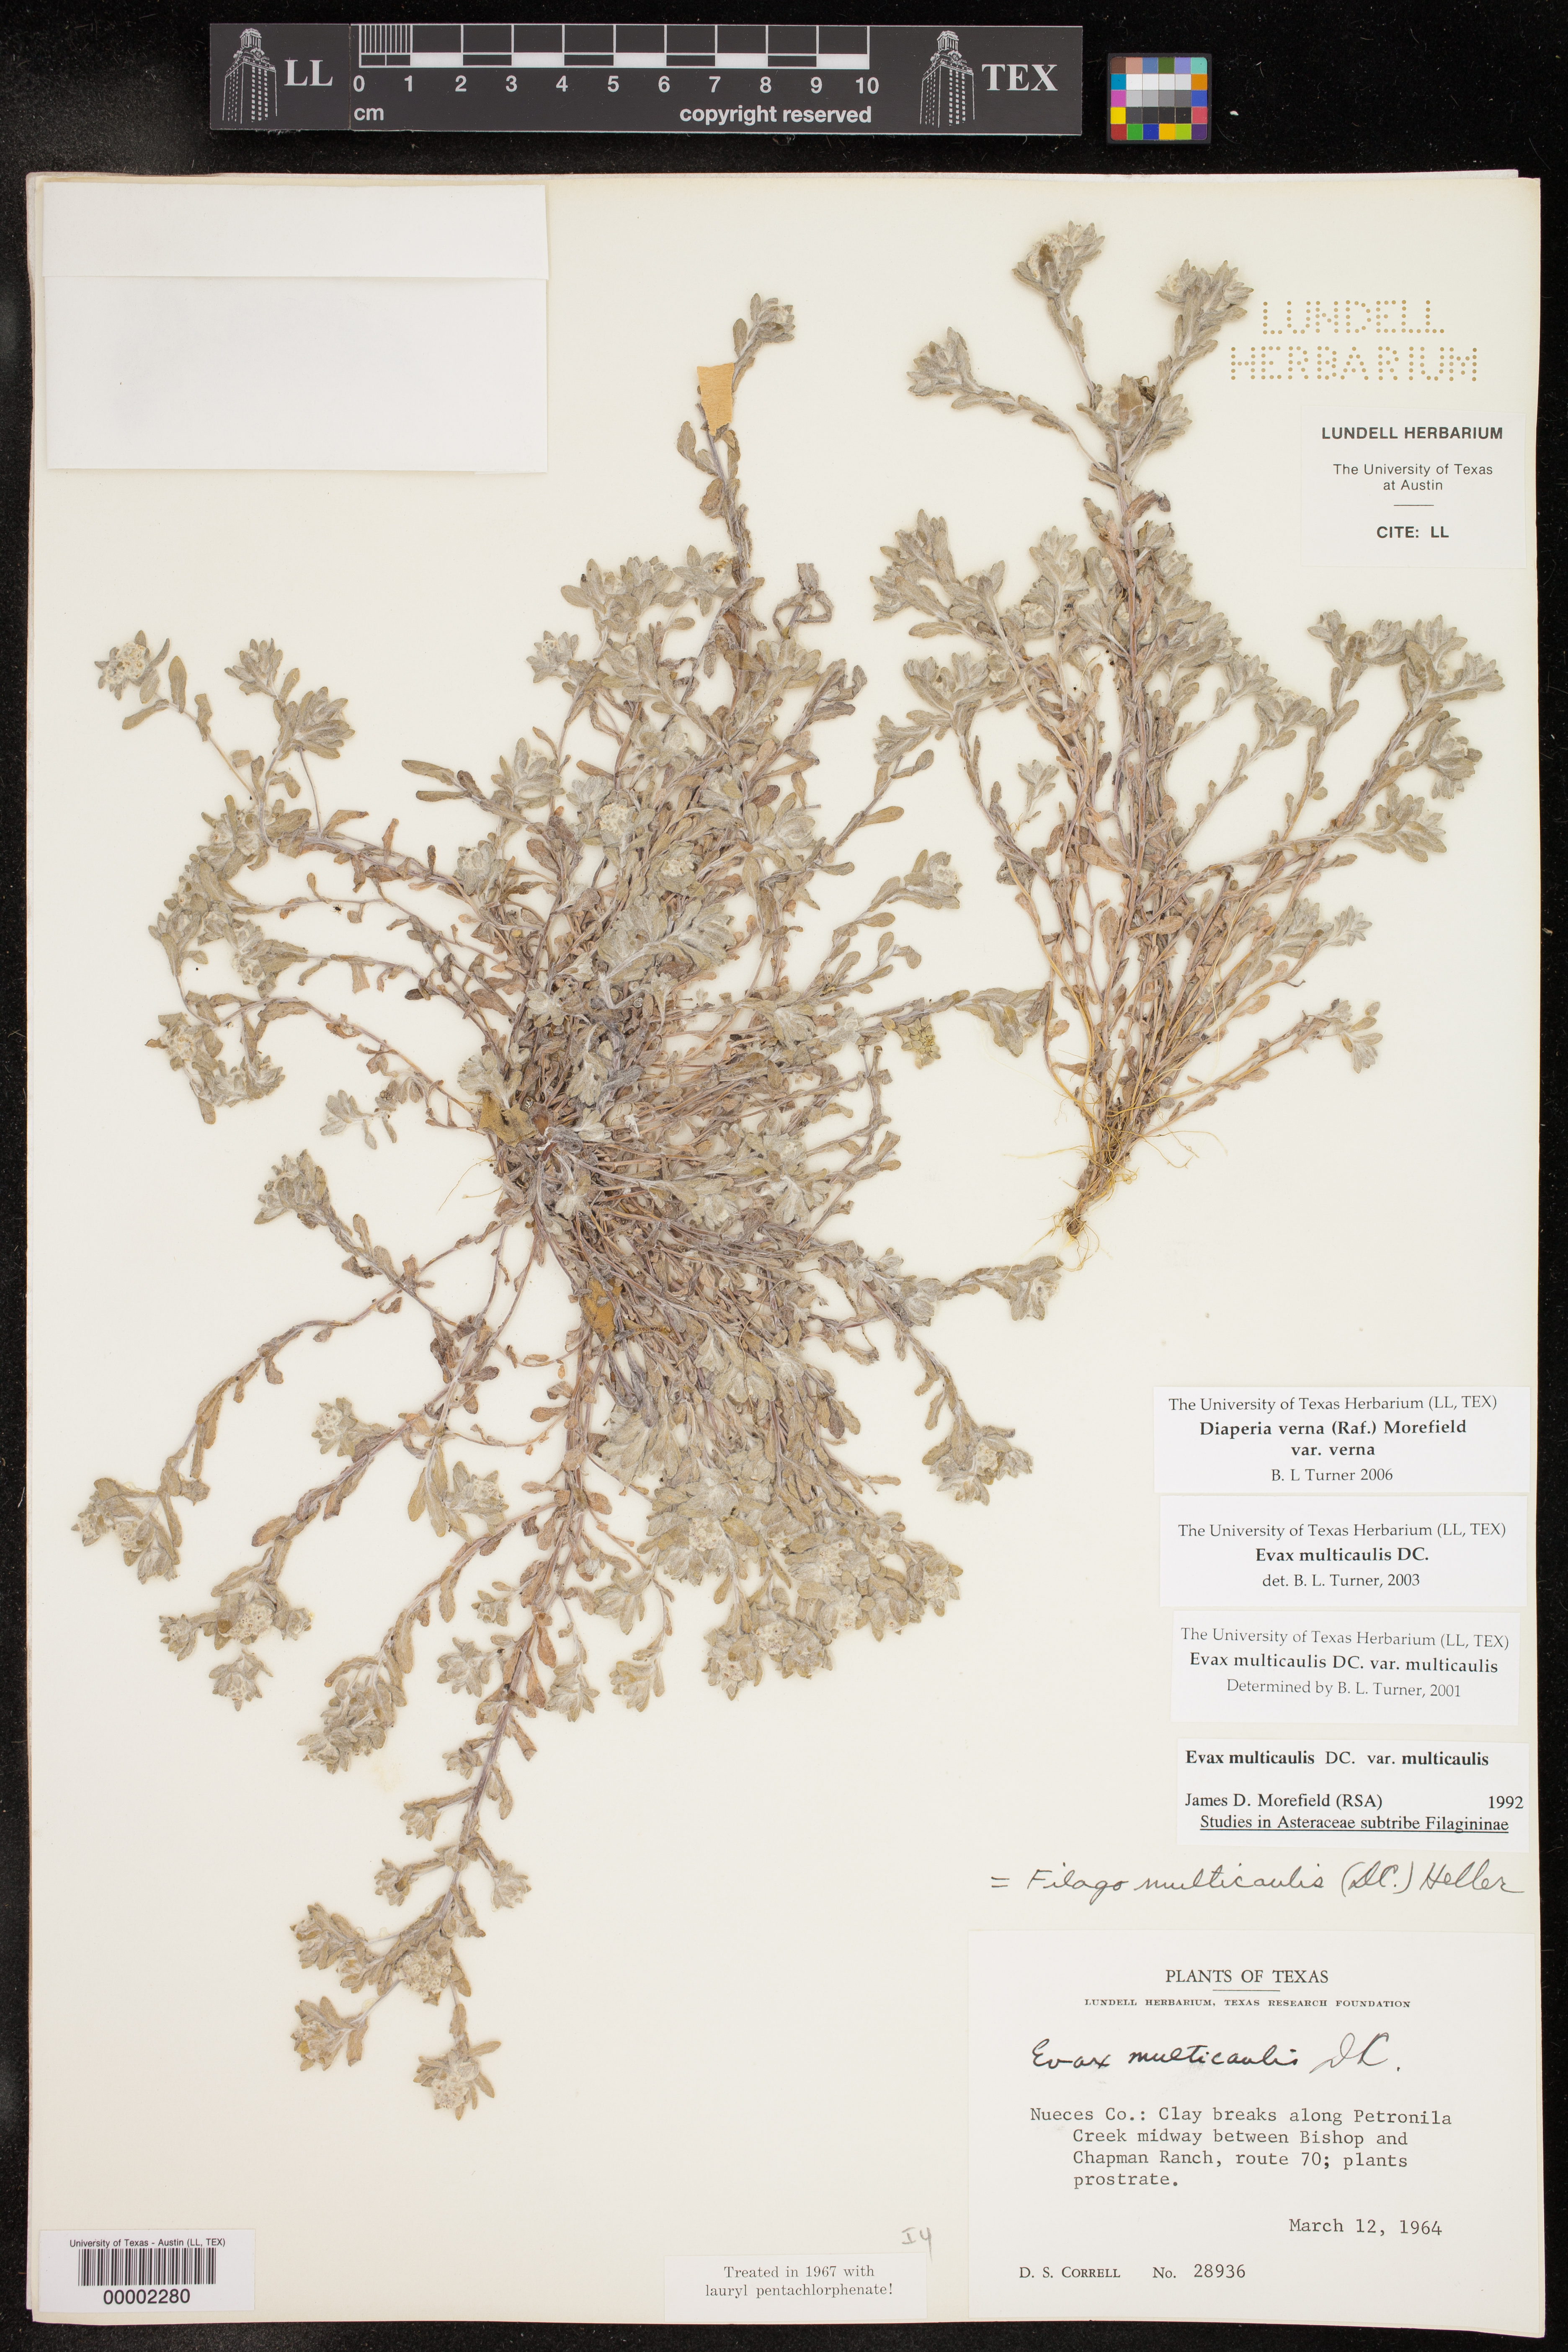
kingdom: Plantae
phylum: Tracheophyta
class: Magnoliopsida
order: Asterales
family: Asteraceae
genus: Diaperia
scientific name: Diaperia verna
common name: Many-stem rabbit-tobacco
